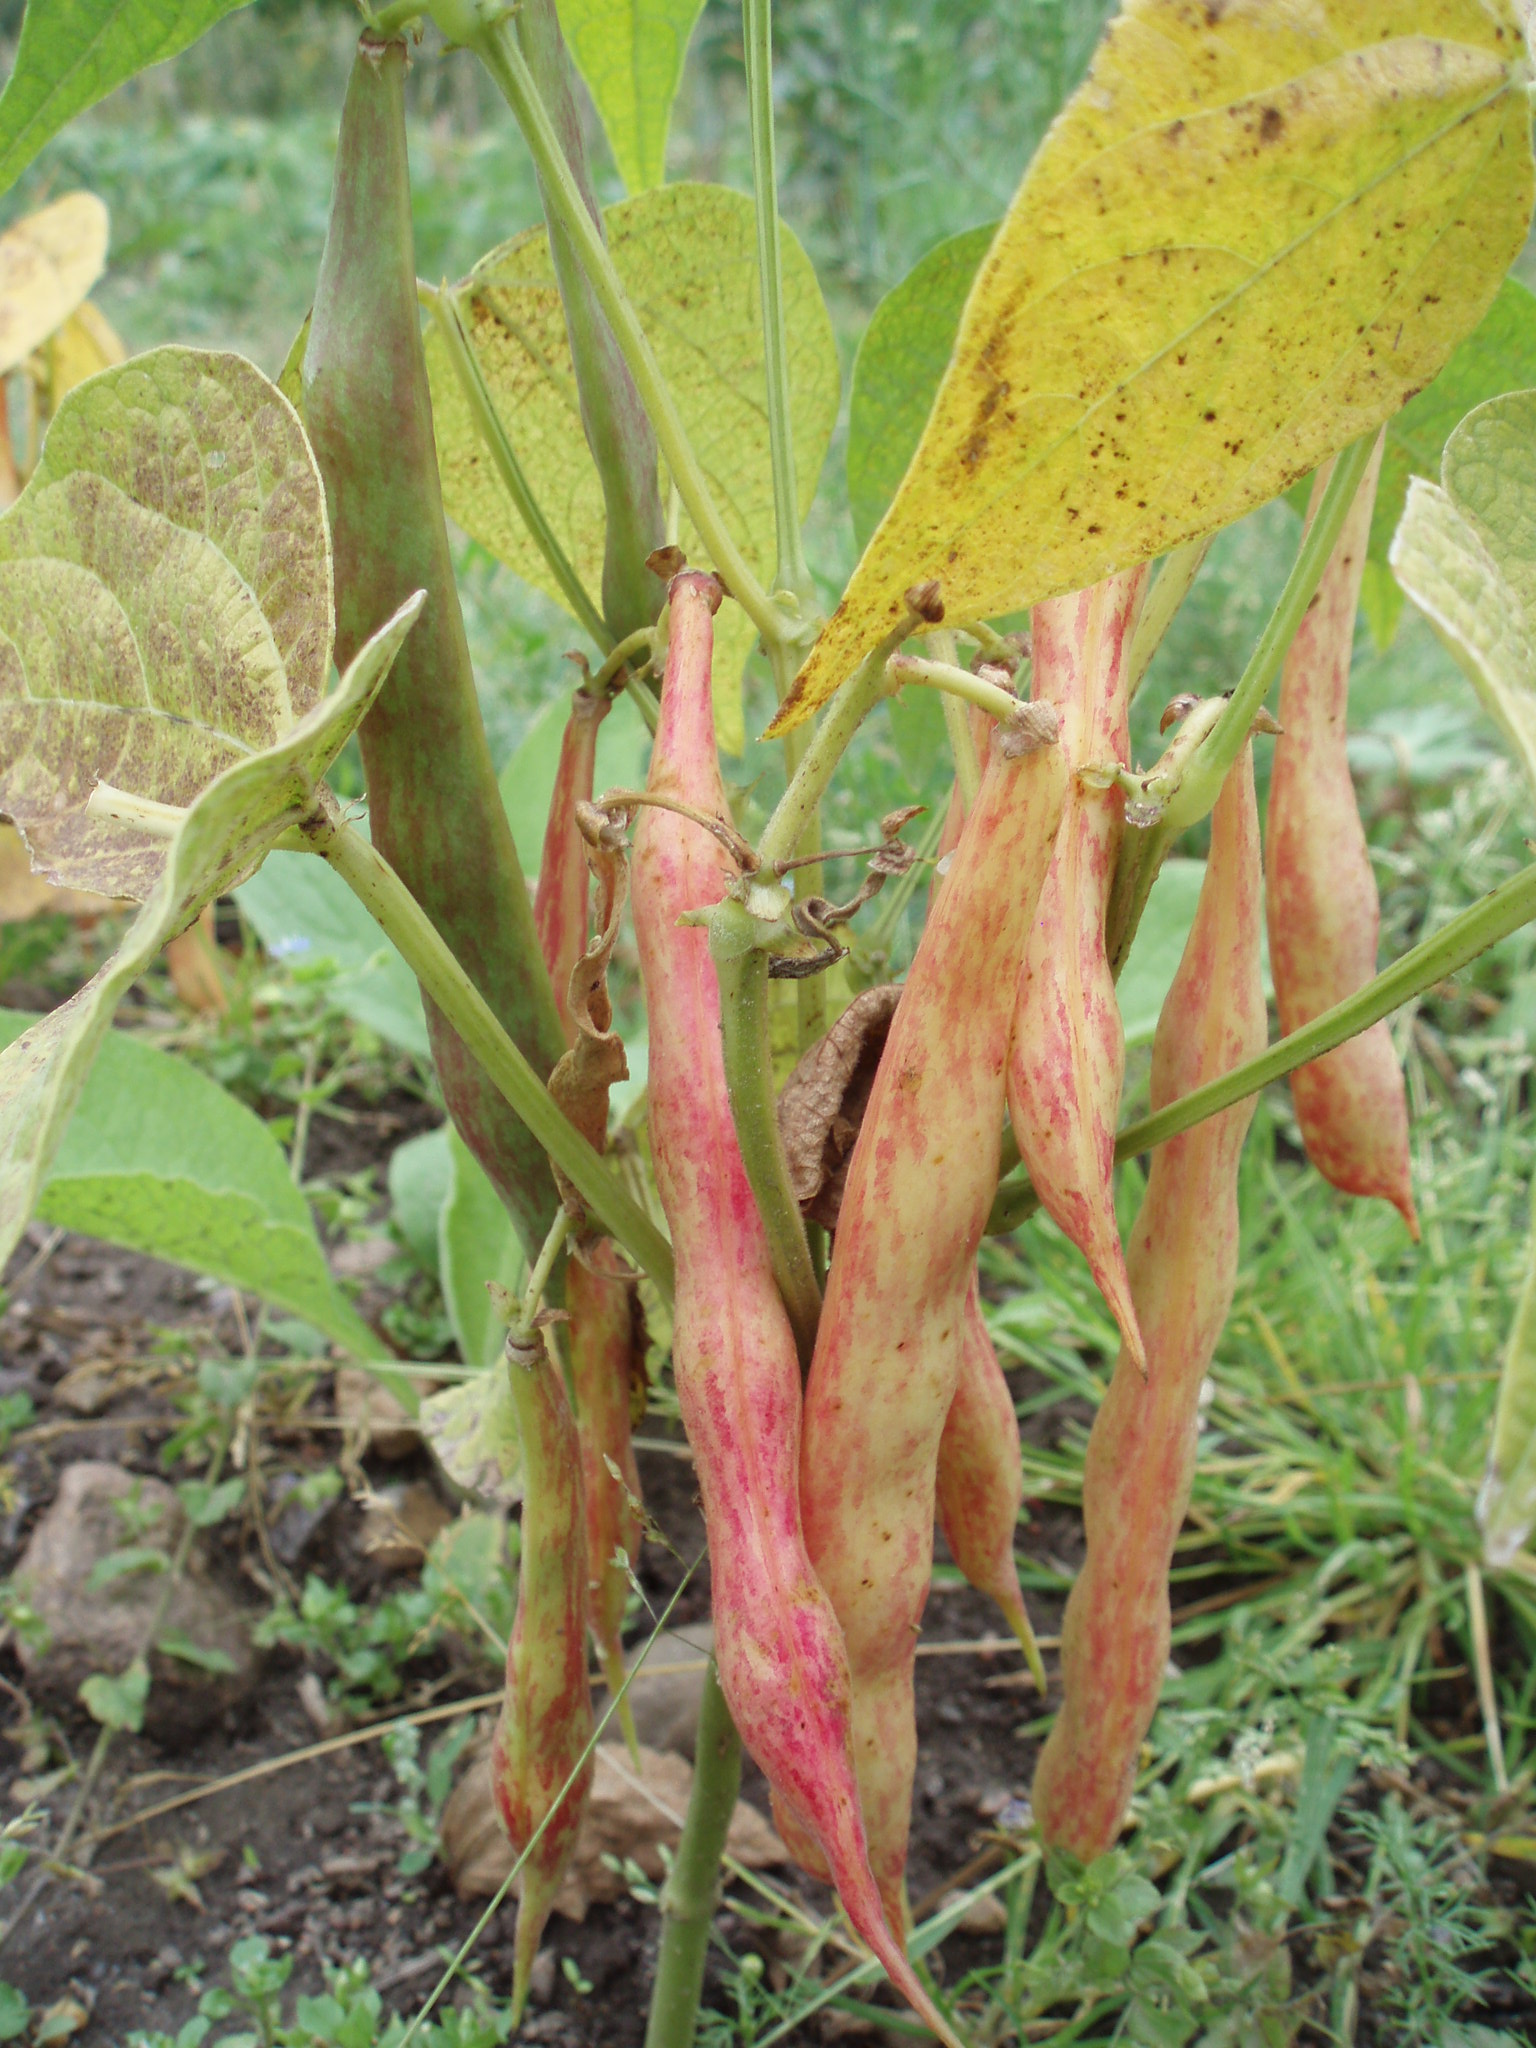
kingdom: Plantae
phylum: Tracheophyta
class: Magnoliopsida
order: Fabales
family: Fabaceae
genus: Phaseolus
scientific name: Phaseolus vulgaris
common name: Bean
